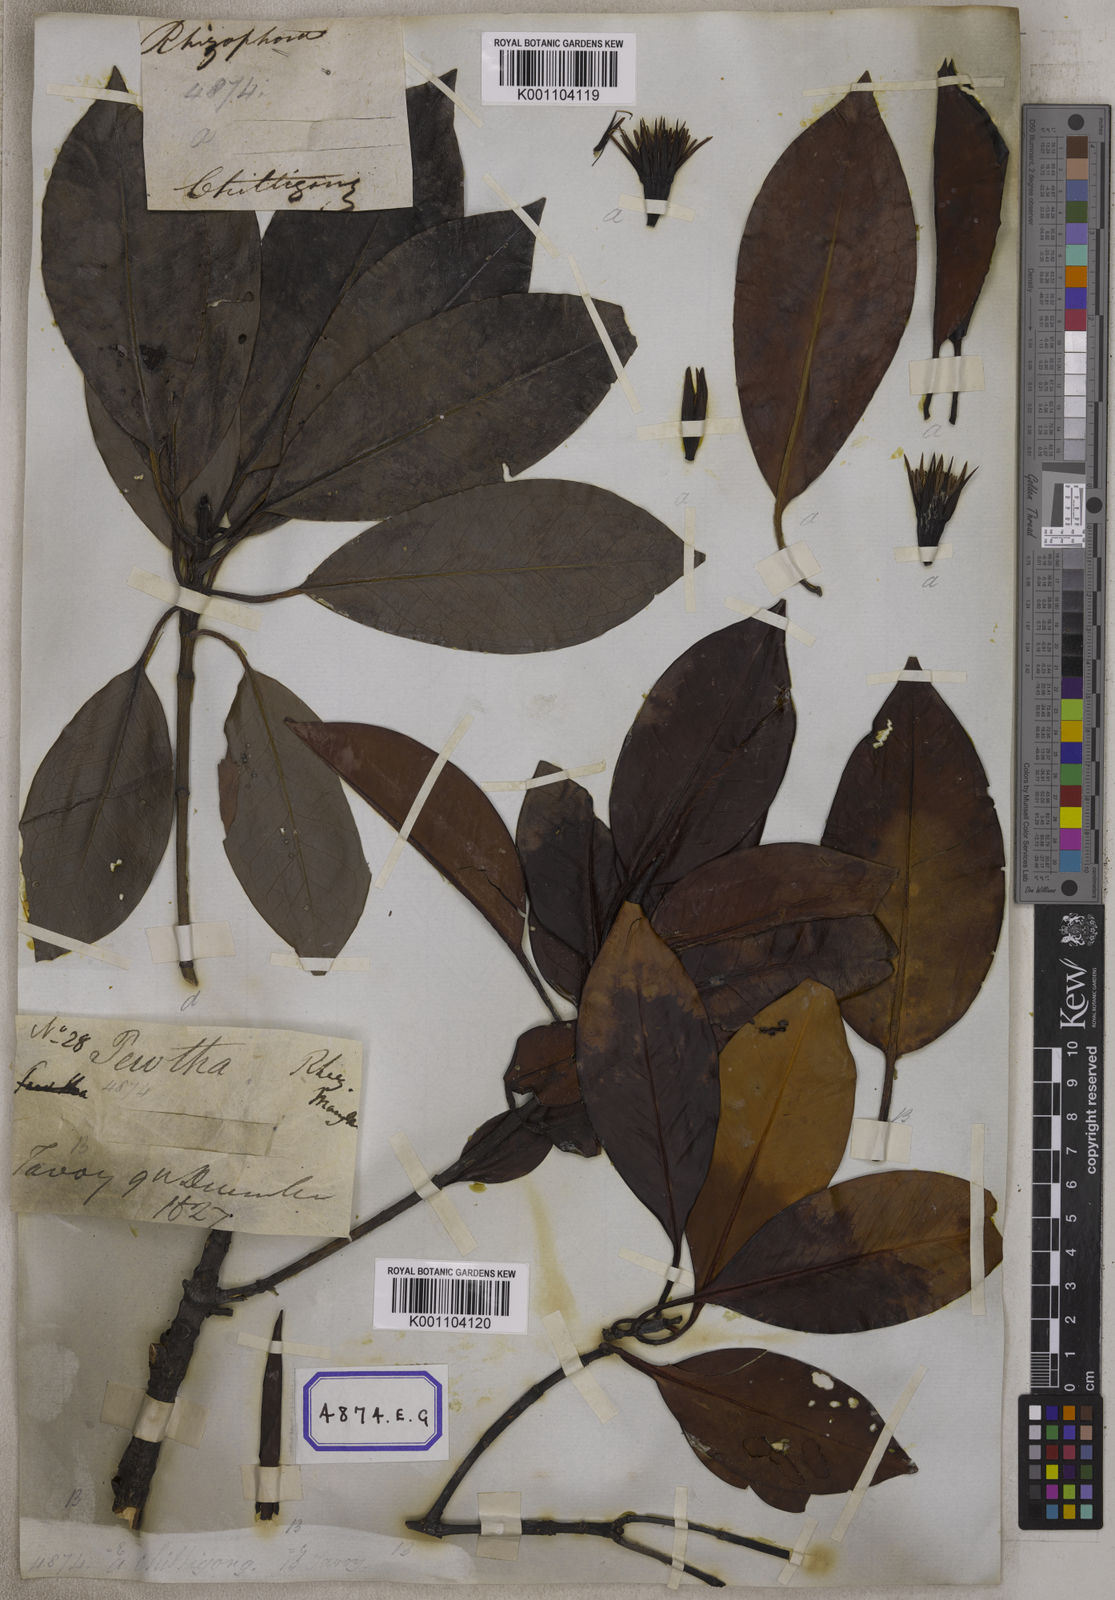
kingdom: Plantae
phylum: Tracheophyta
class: Magnoliopsida
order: Malpighiales
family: Rhizophoraceae
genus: Bruguiera
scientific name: Bruguiera gymnorhiza
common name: Oriental mangrove
